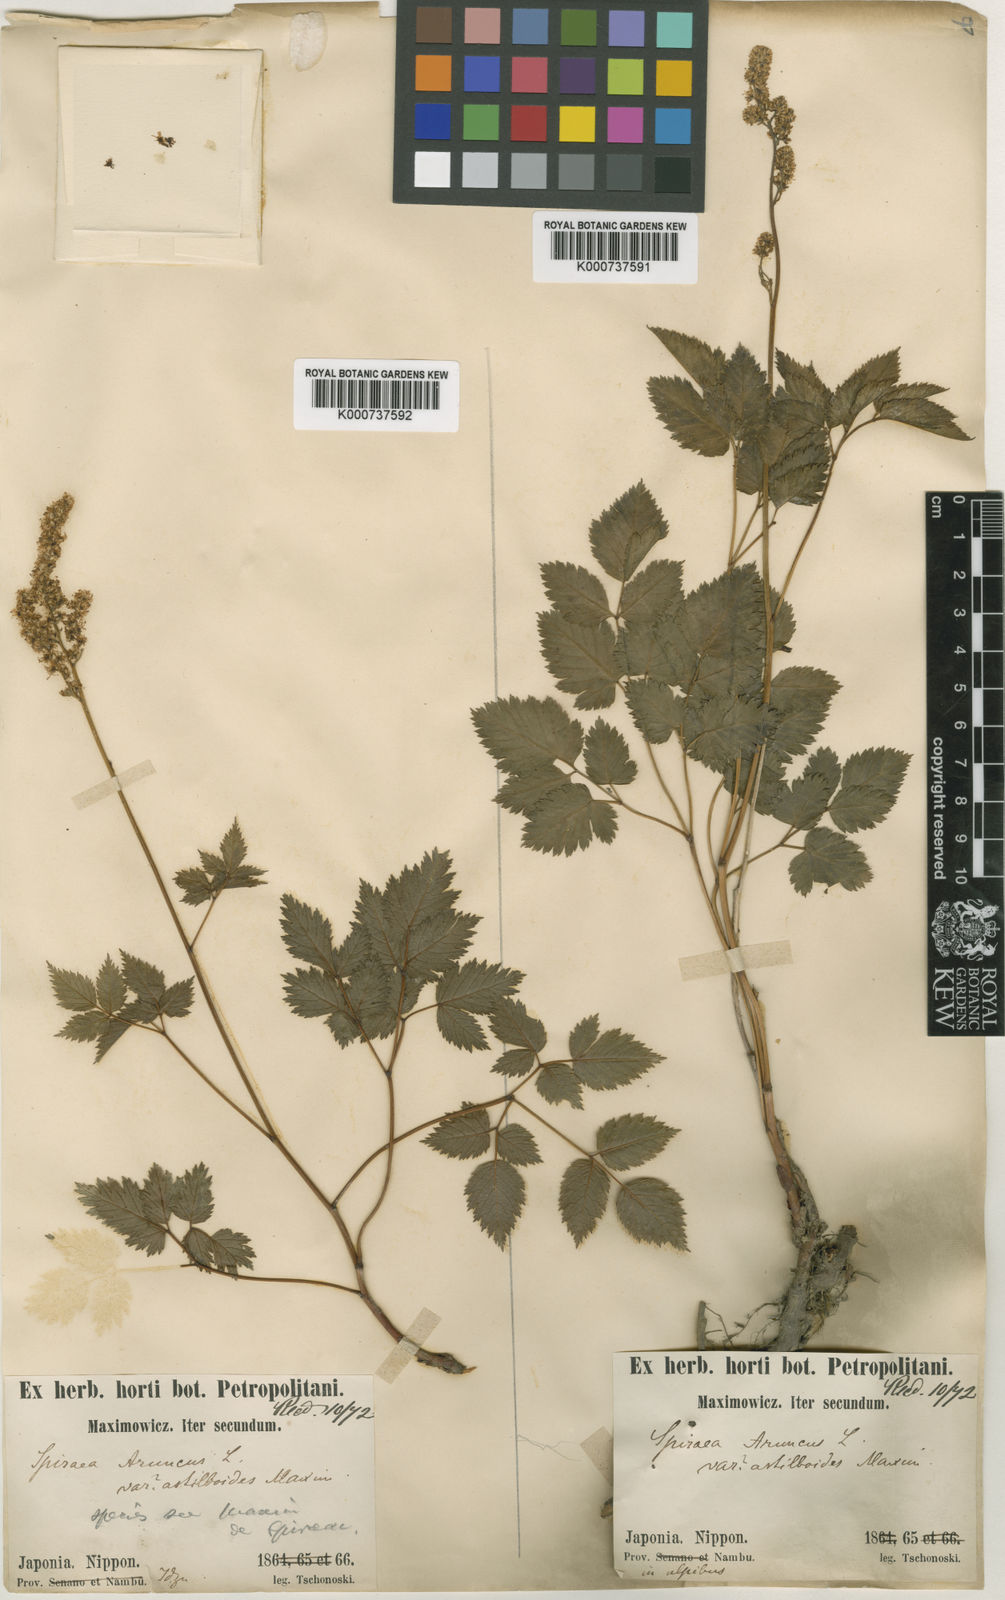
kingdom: Plantae
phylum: Tracheophyta
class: Magnoliopsida
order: Rosales
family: Rosaceae
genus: Aruncus
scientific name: Aruncus sylvester
